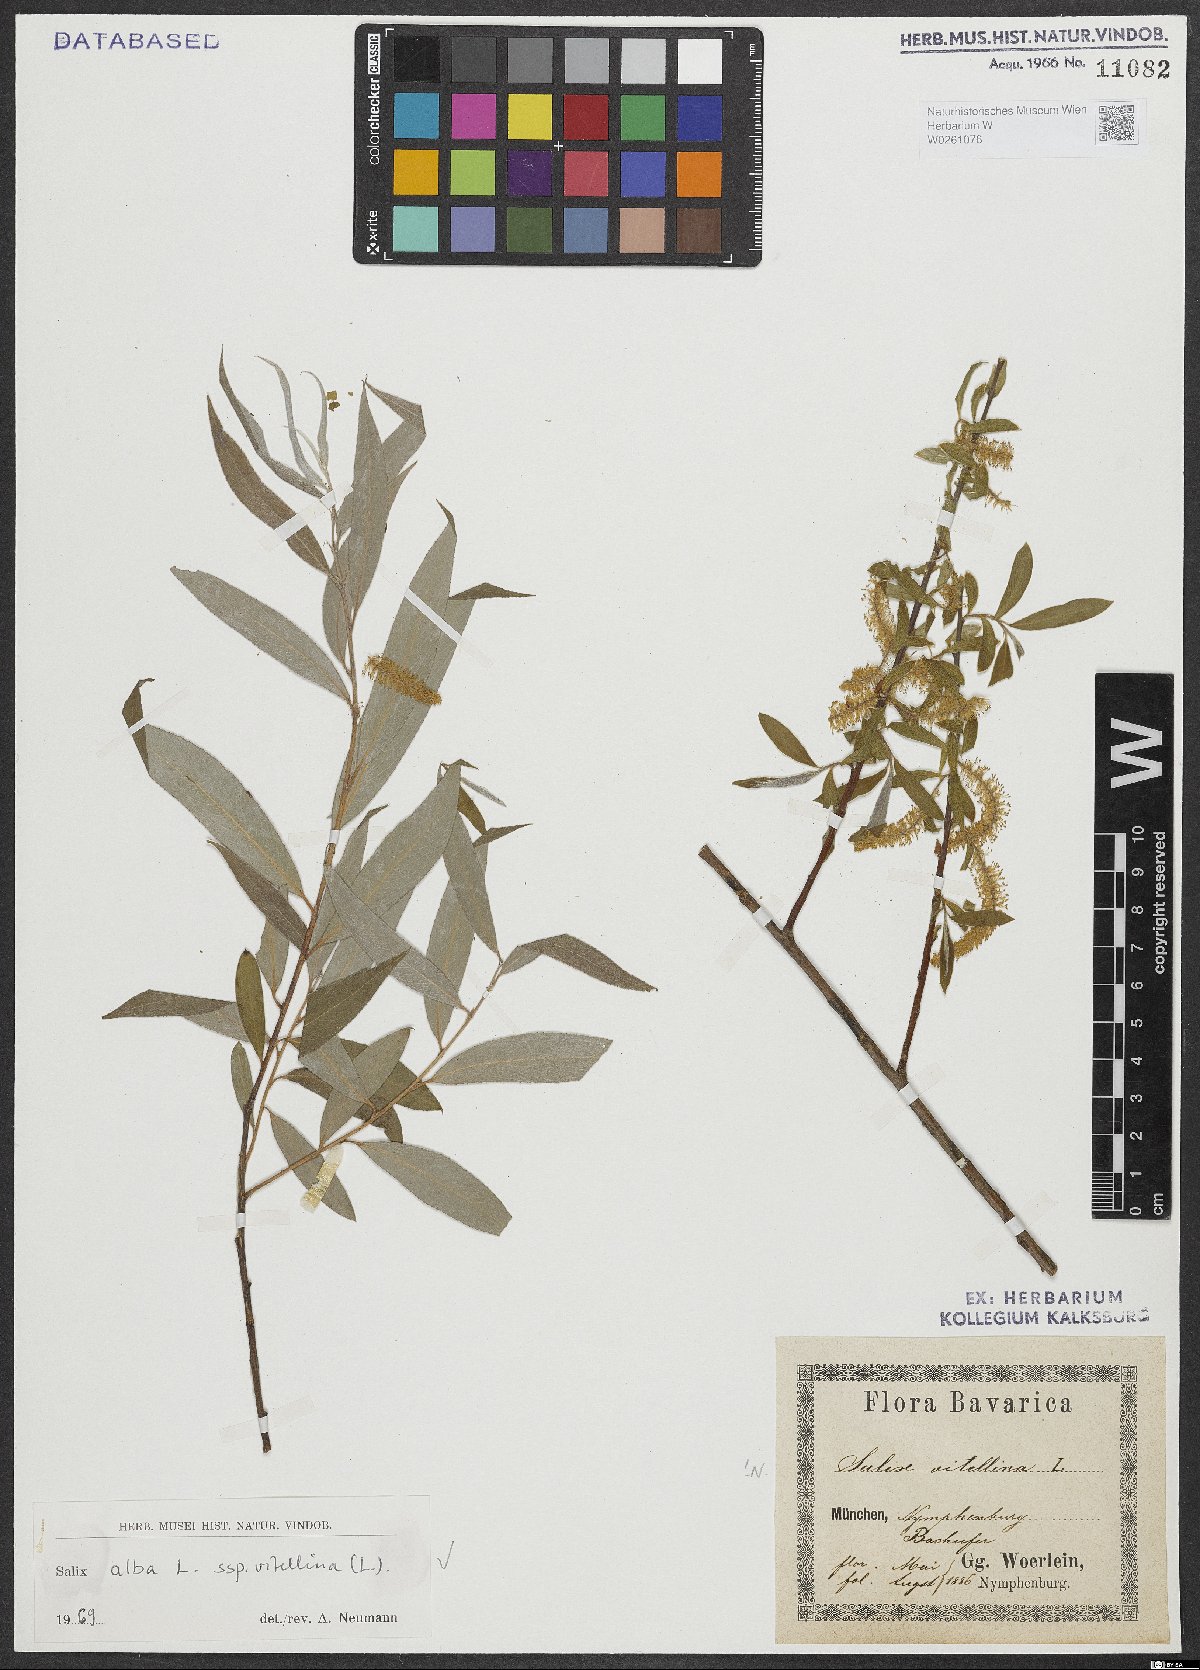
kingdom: Plantae
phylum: Tracheophyta
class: Magnoliopsida
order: Malpighiales
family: Salicaceae
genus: Salix
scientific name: Salix alba
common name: White willow
